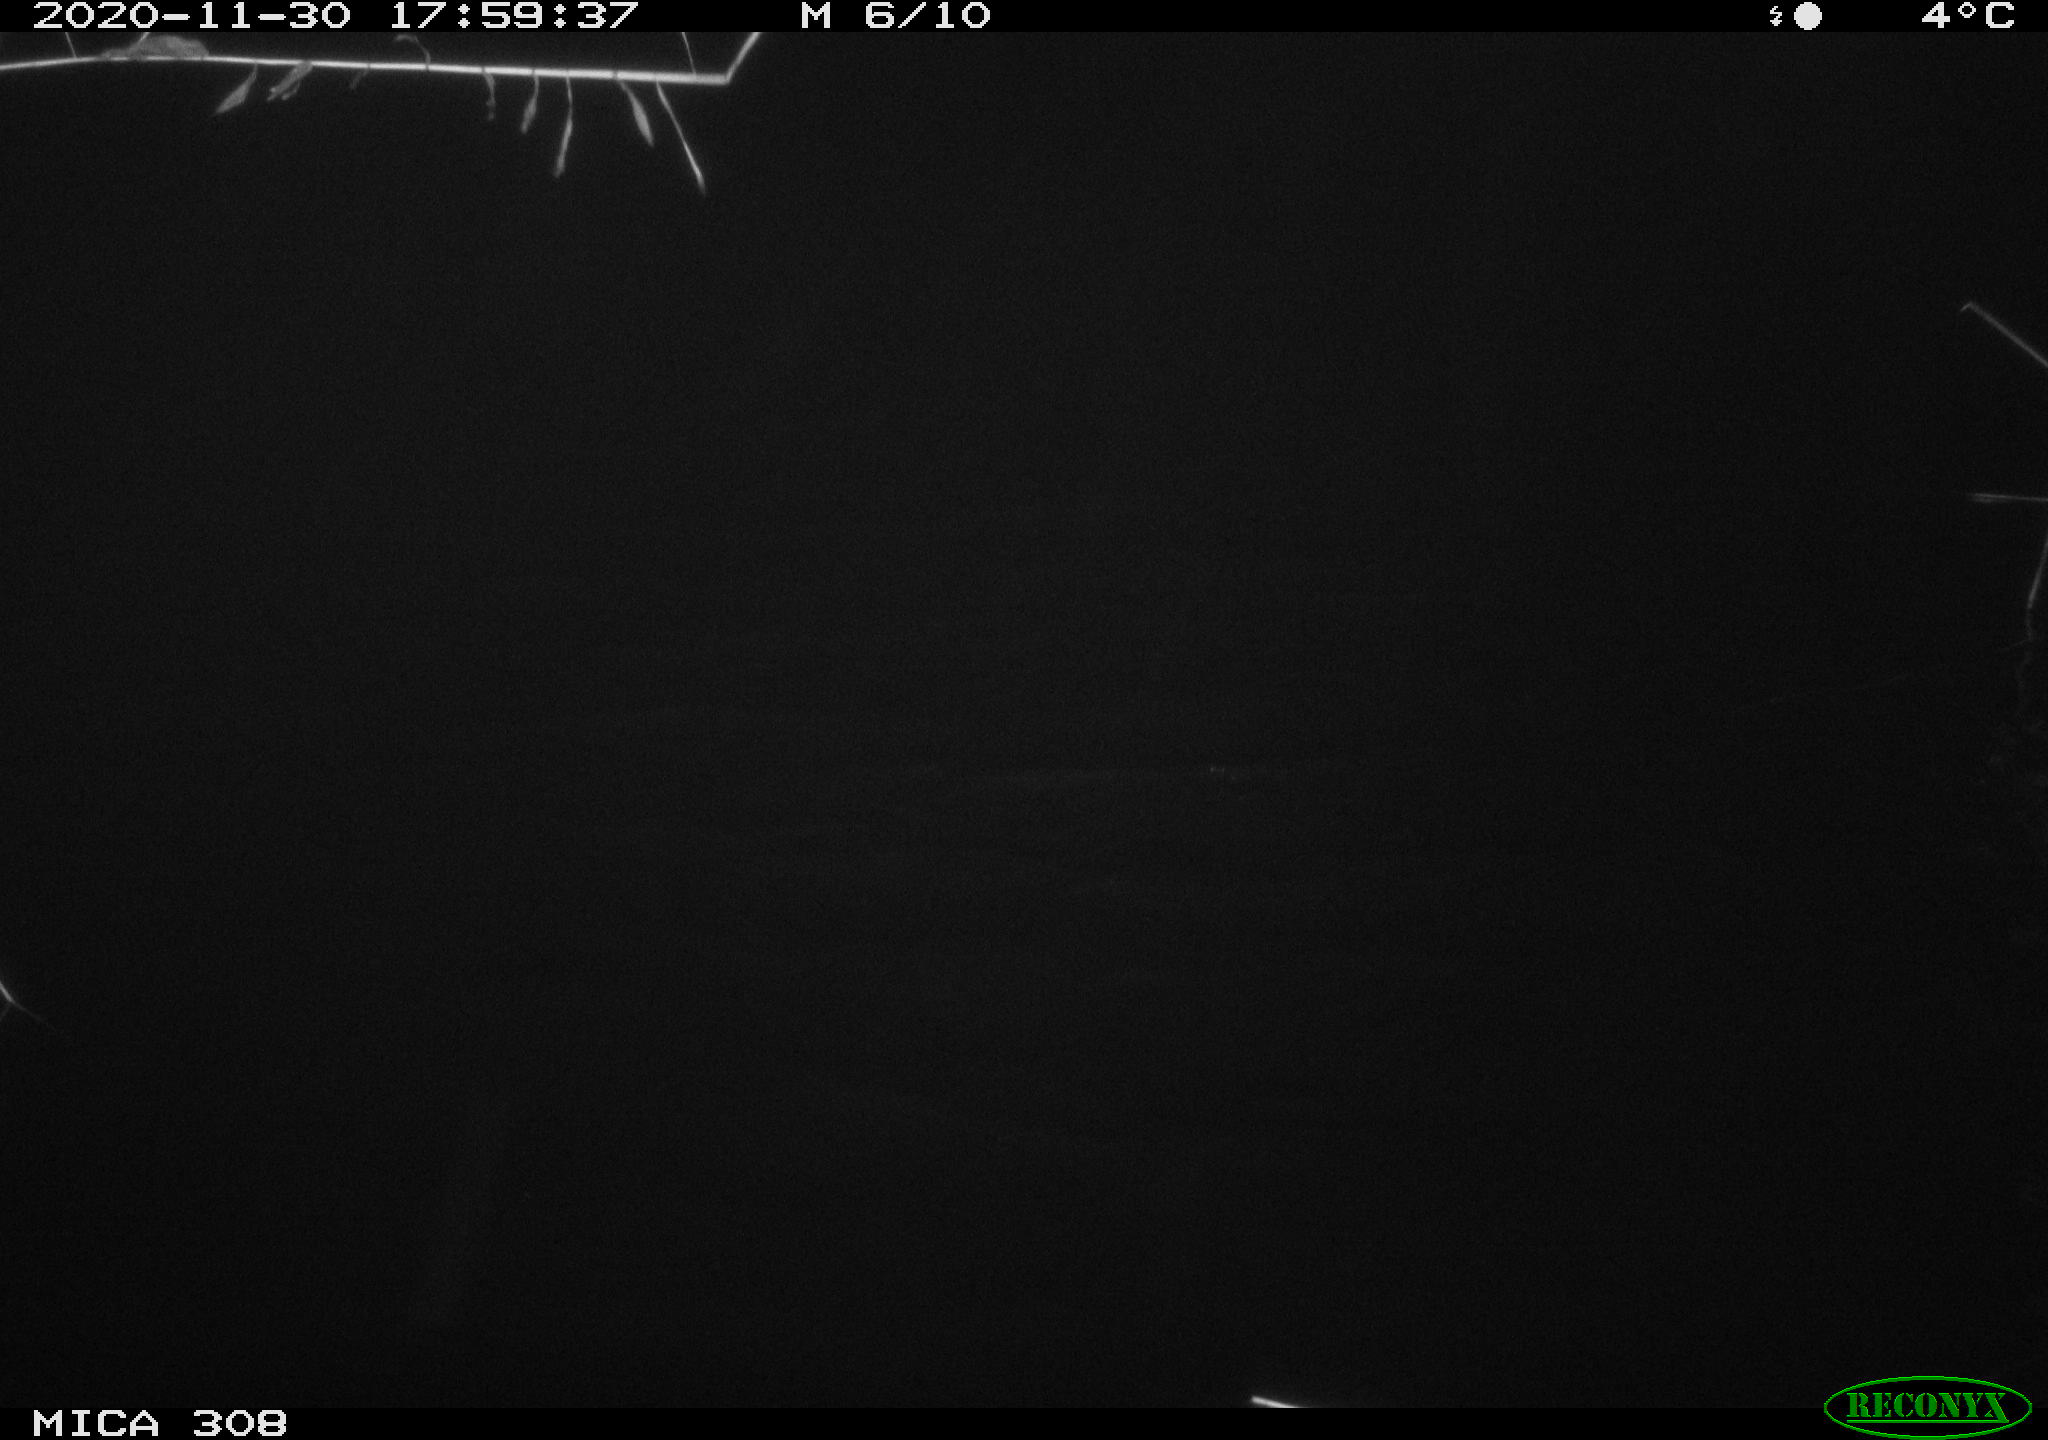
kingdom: Animalia
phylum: Chordata
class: Mammalia
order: Rodentia
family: Muridae
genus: Rattus
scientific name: Rattus norvegicus
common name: Brown rat
